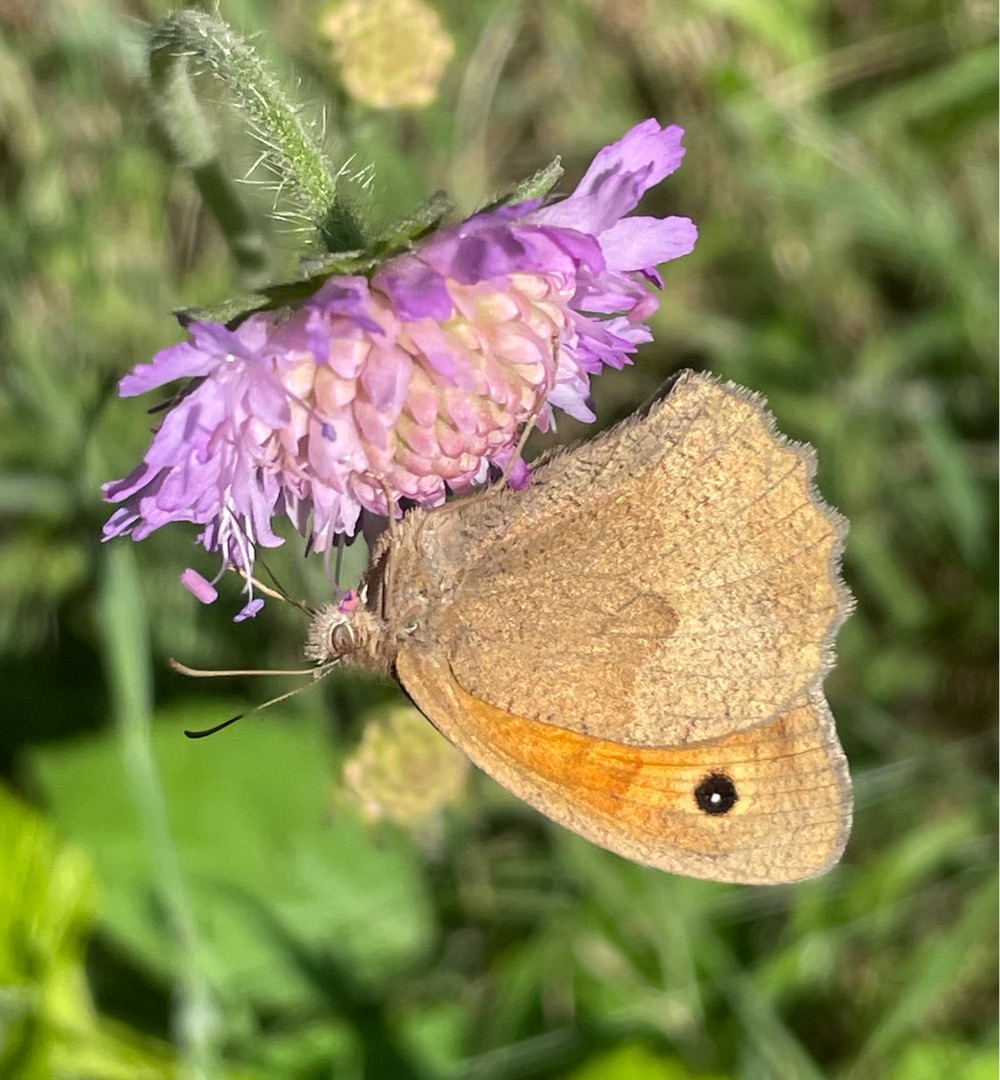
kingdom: Animalia
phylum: Arthropoda
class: Insecta
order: Lepidoptera
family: Nymphalidae
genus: Maniola
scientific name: Maniola jurtina
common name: Græsrandøje
